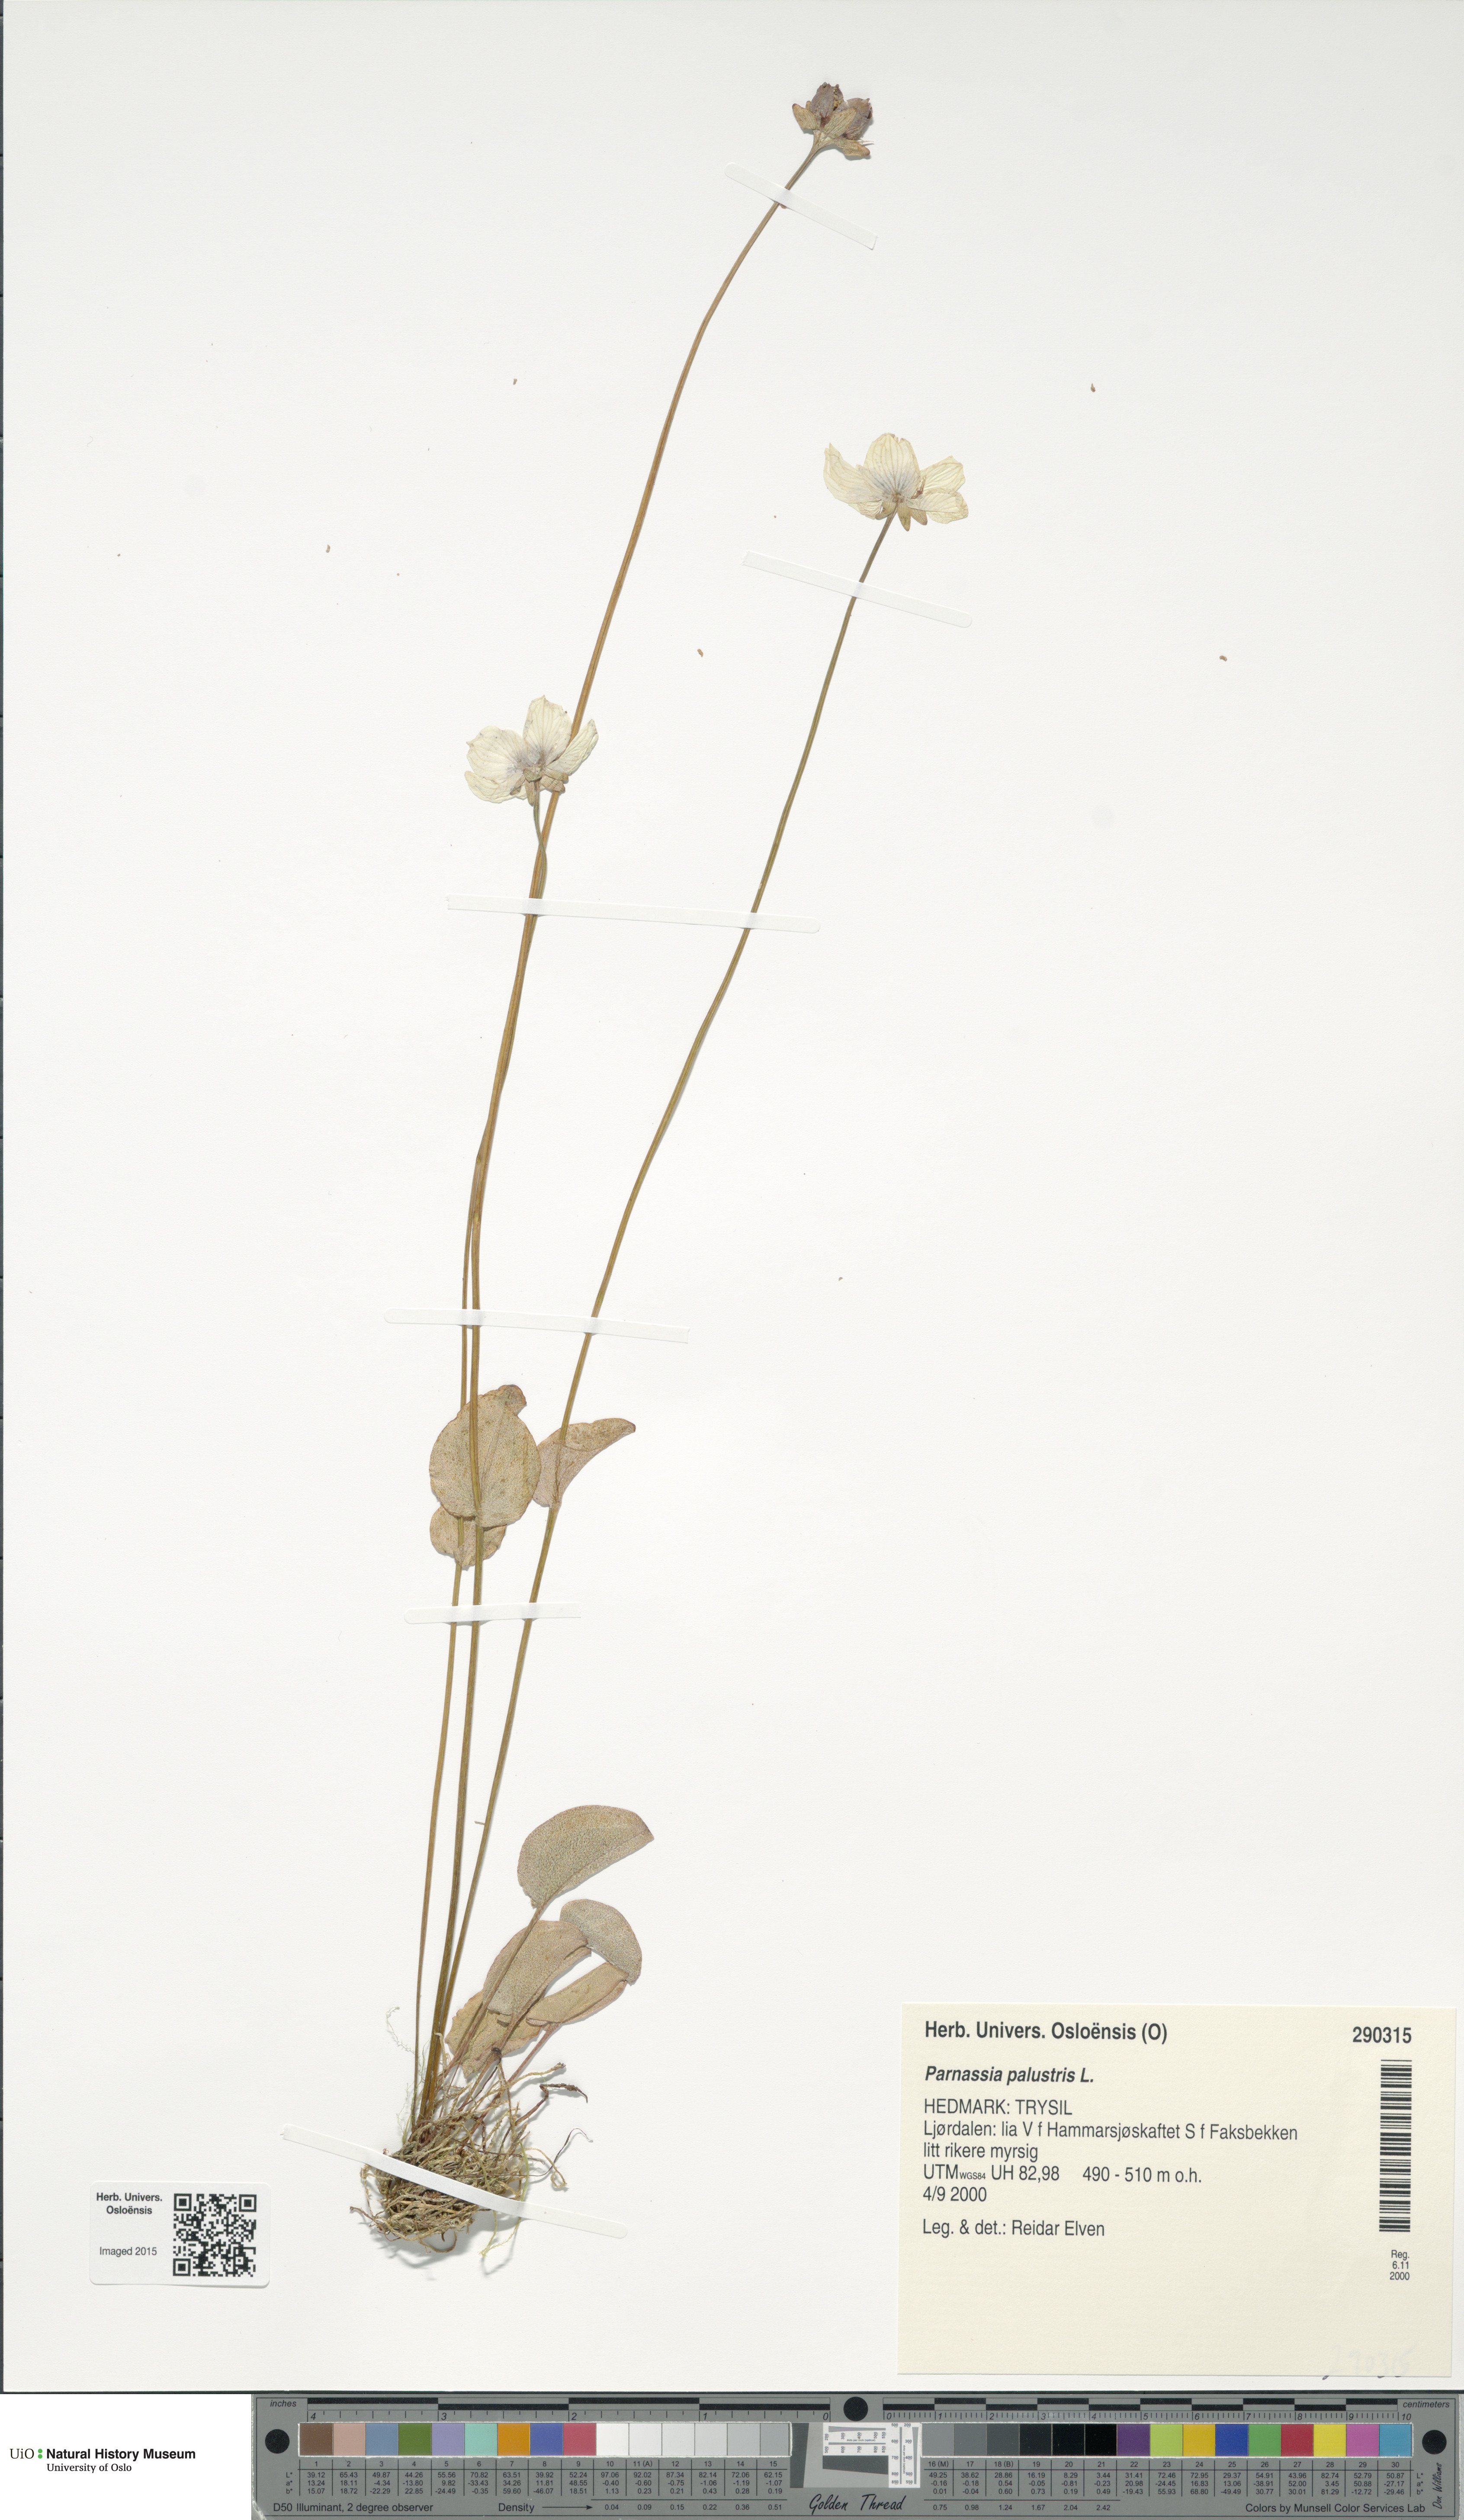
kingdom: Plantae
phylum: Tracheophyta
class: Magnoliopsida
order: Celastrales
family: Parnassiaceae
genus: Parnassia
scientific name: Parnassia palustris
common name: Grass-of-parnassus
